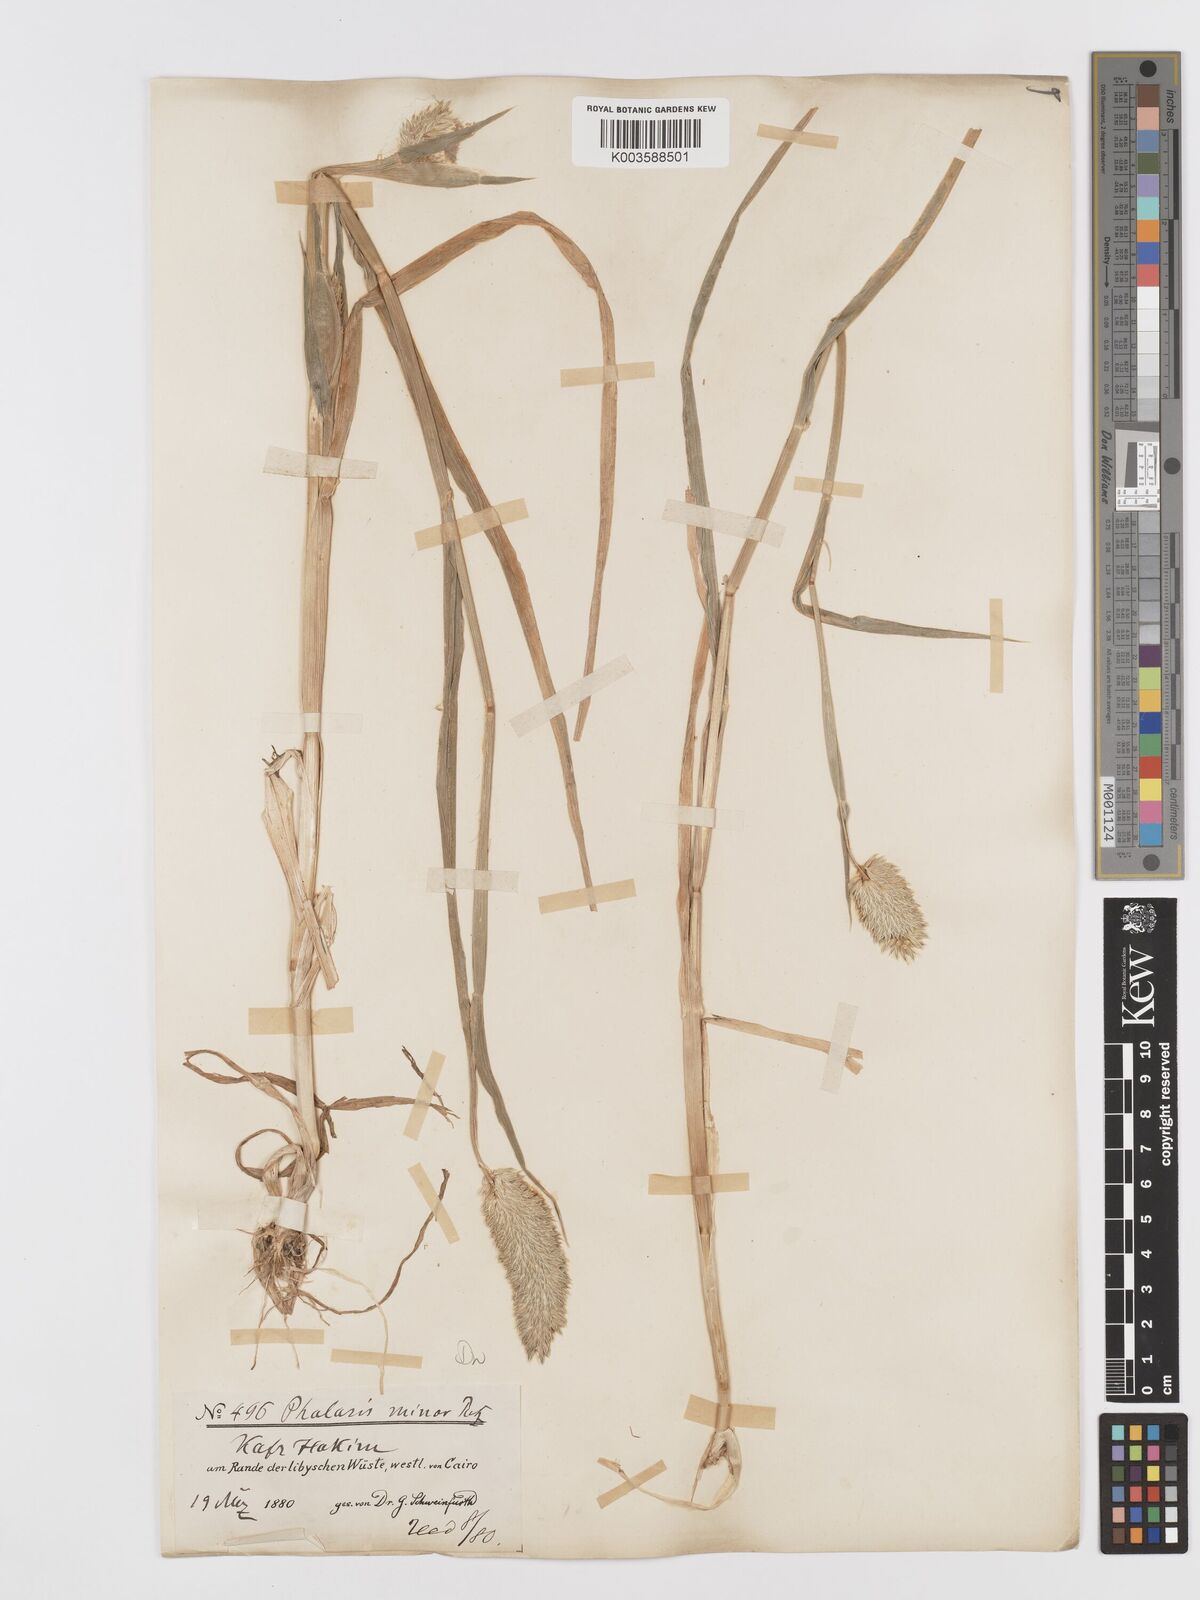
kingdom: Plantae
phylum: Tracheophyta
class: Liliopsida
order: Poales
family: Poaceae
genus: Phalaris
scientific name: Phalaris minor
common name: Littleseed canarygrass
